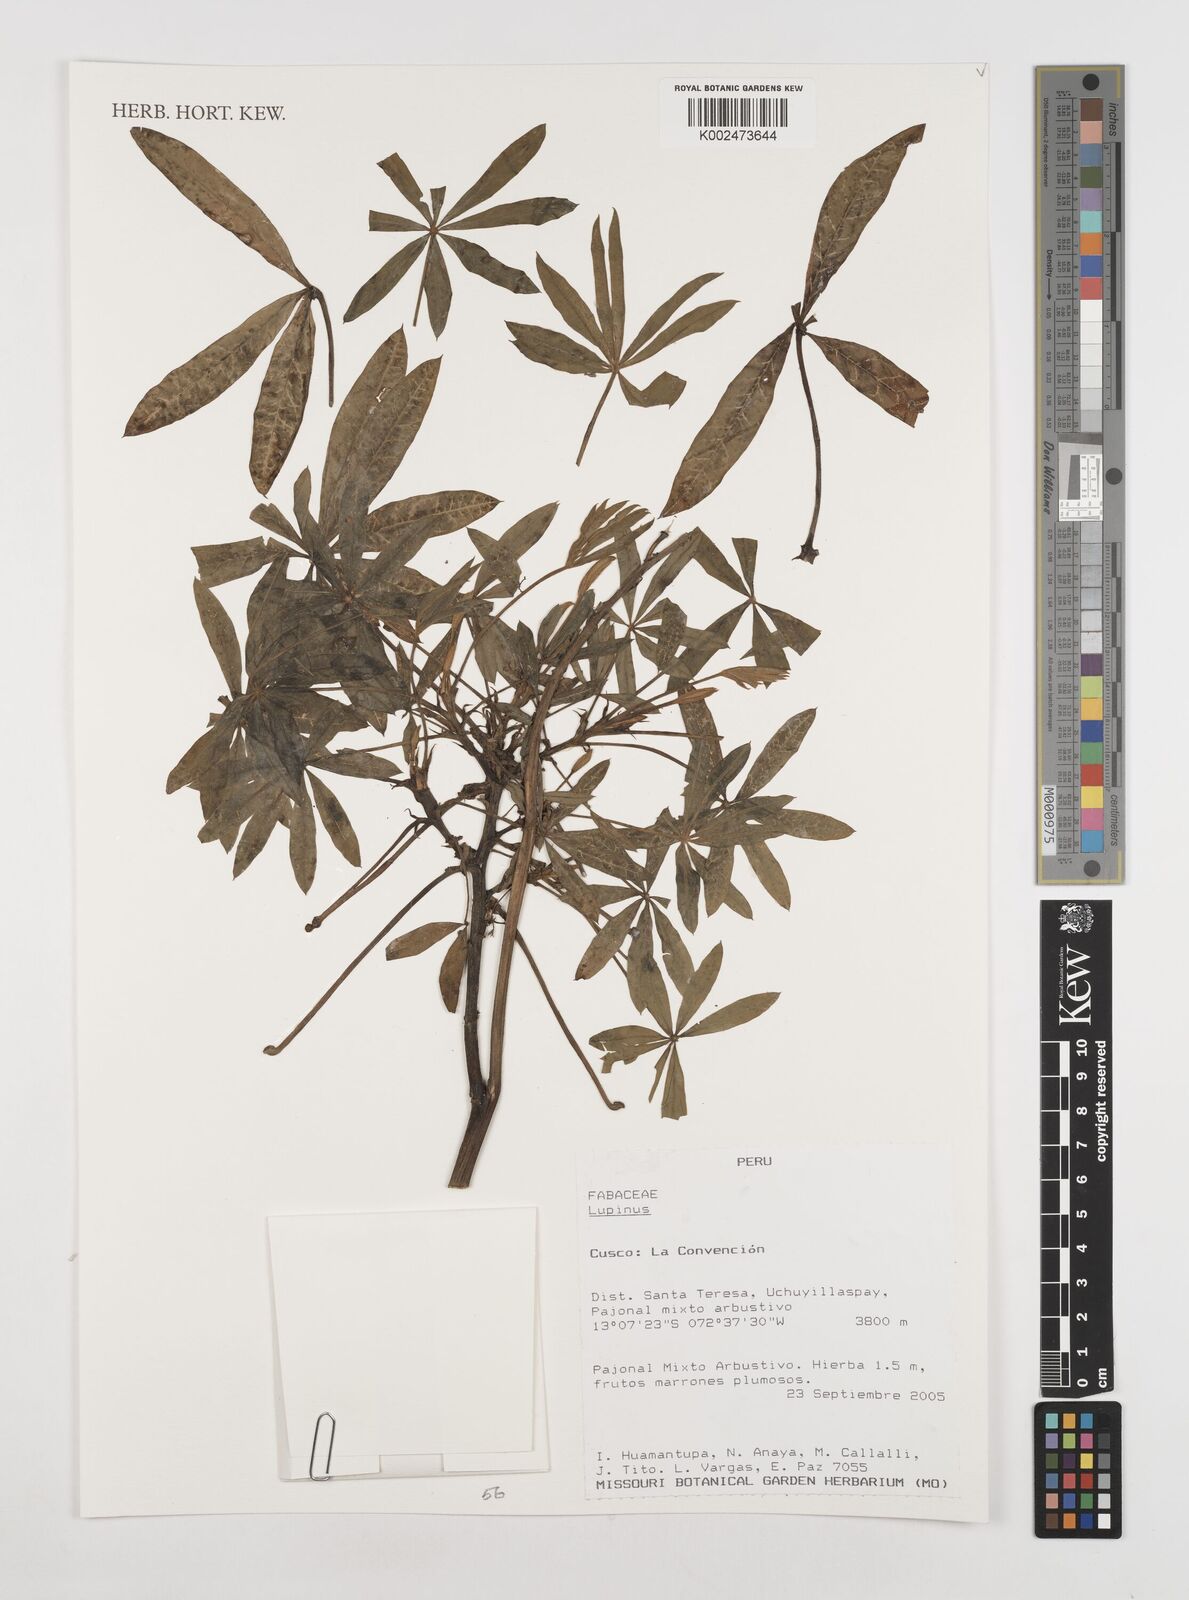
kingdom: Plantae
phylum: Tracheophyta
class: Magnoliopsida
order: Fabales
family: Fabaceae
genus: Lupinus
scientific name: Lupinus
